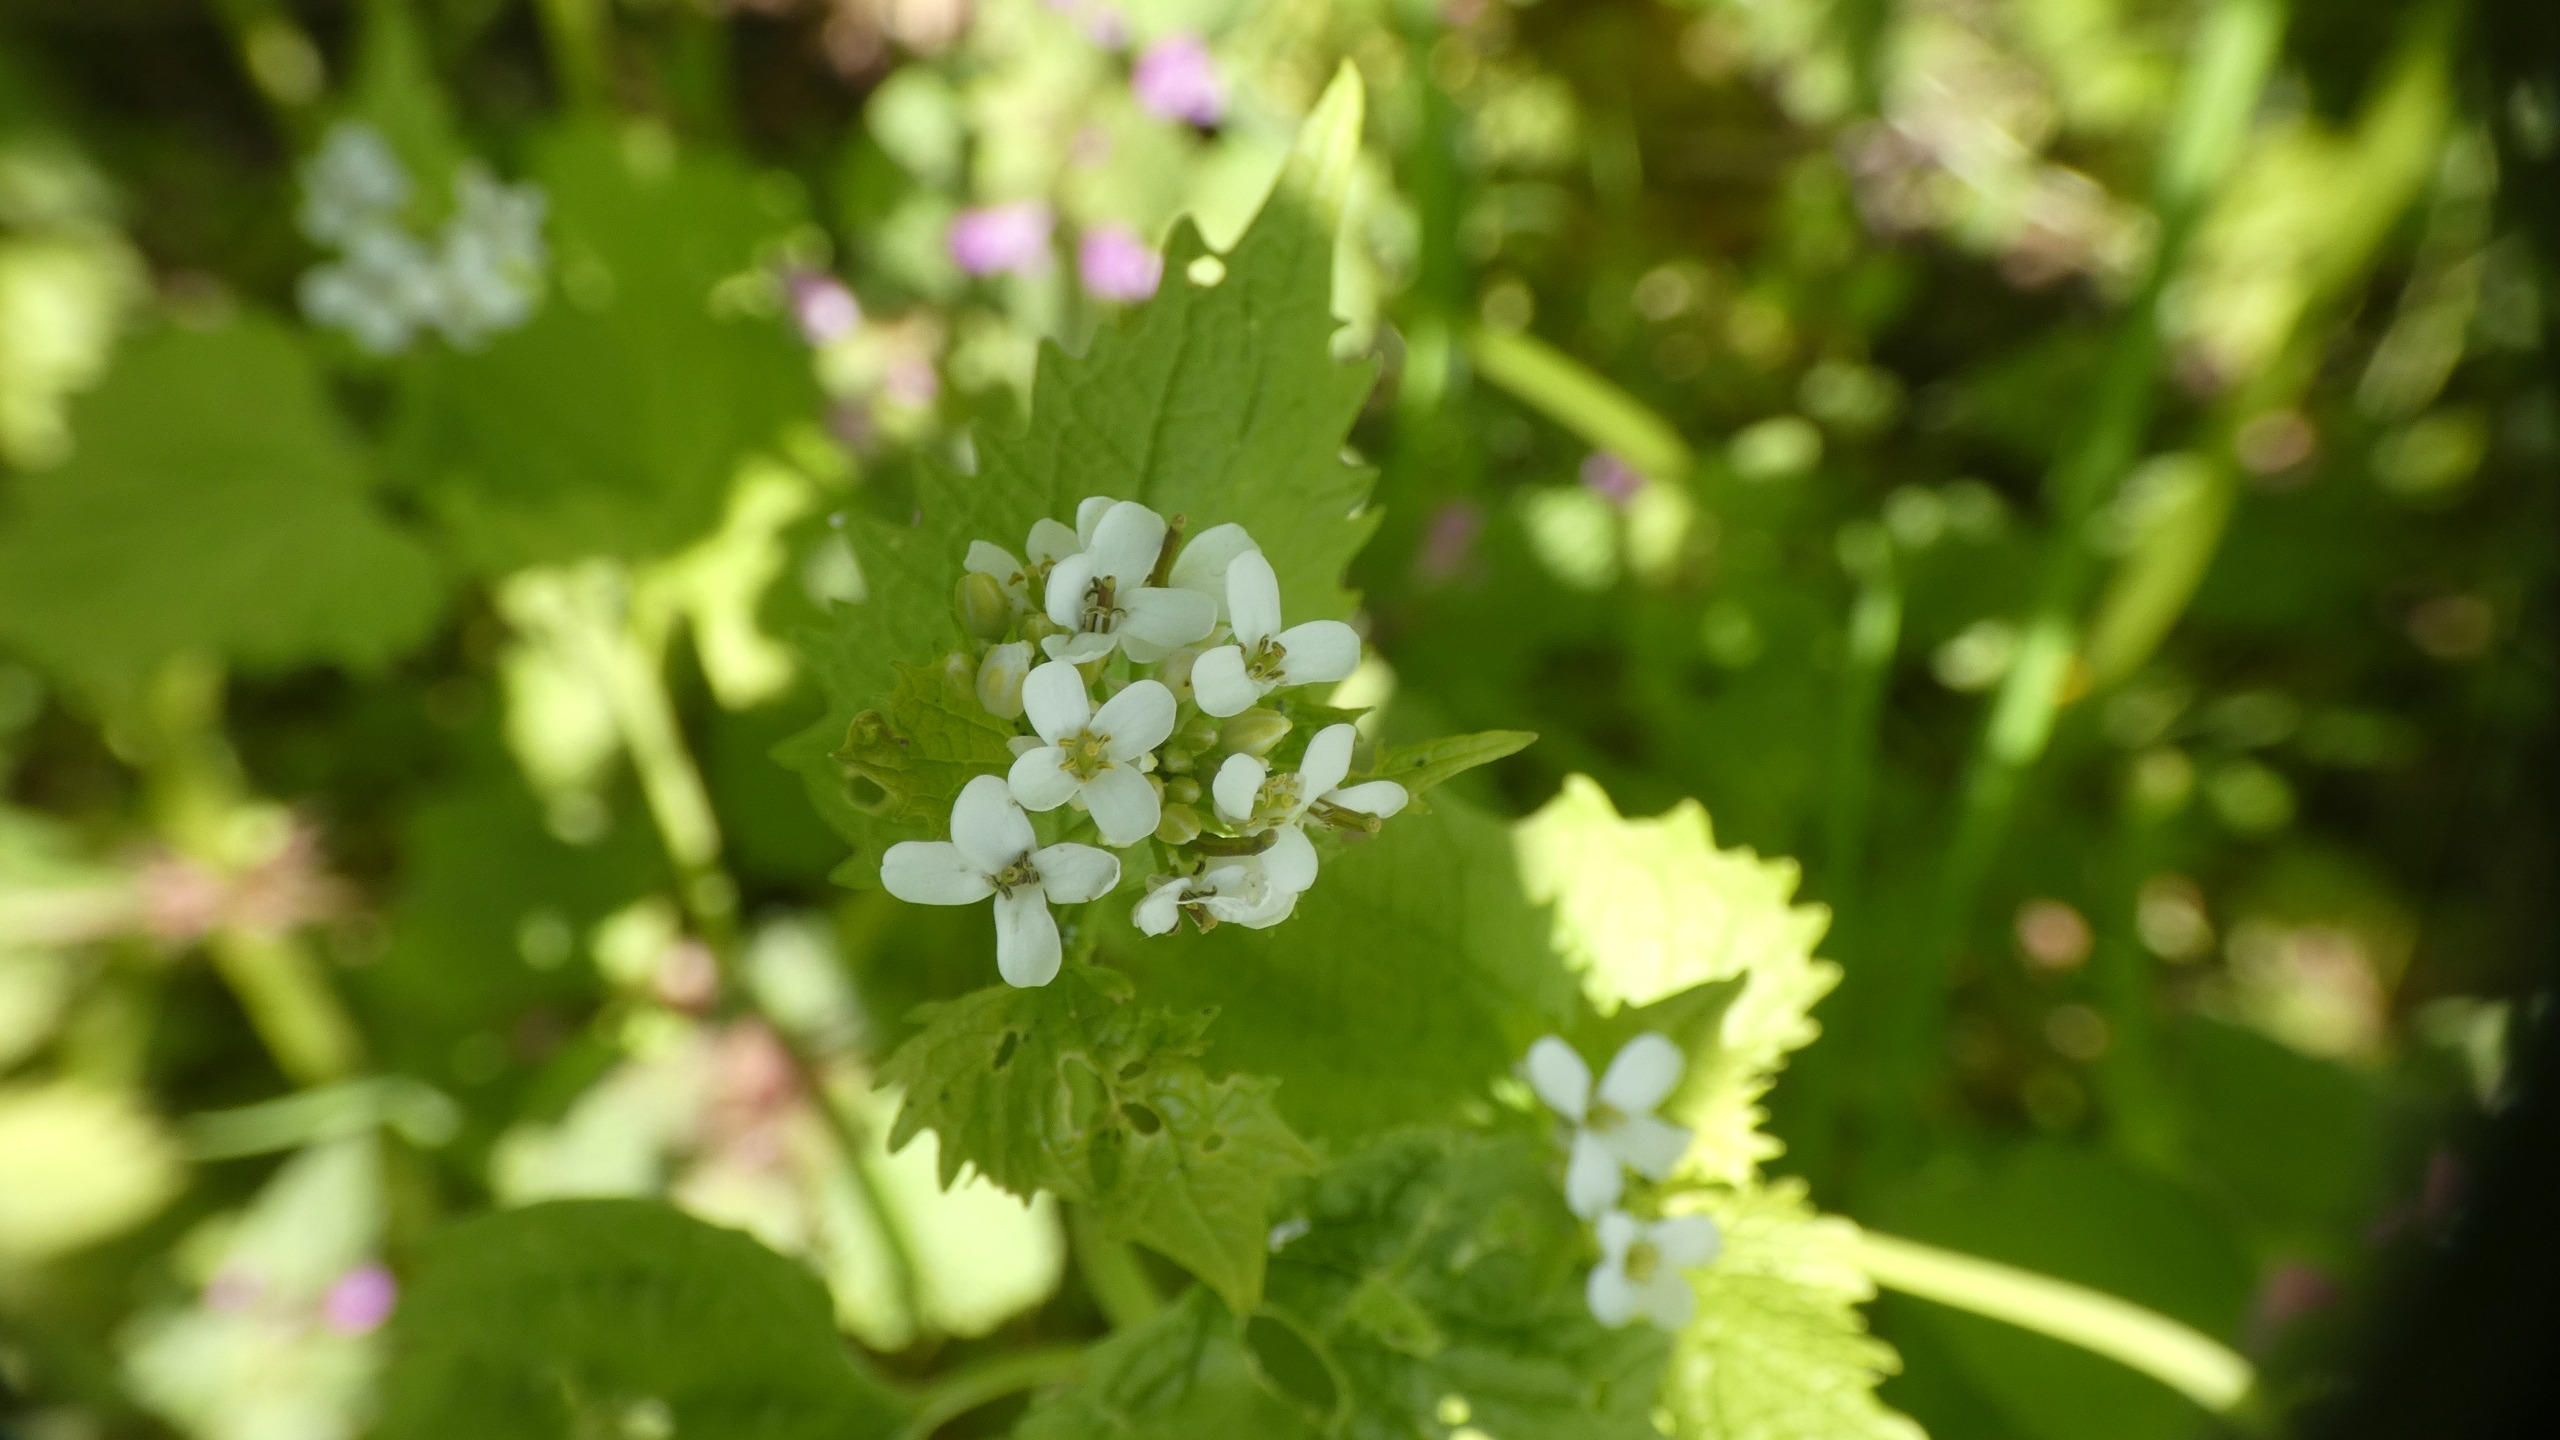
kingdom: Plantae
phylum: Tracheophyta
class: Magnoliopsida
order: Brassicales
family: Brassicaceae
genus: Alliaria
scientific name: Alliaria petiolata
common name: Løgkarse
